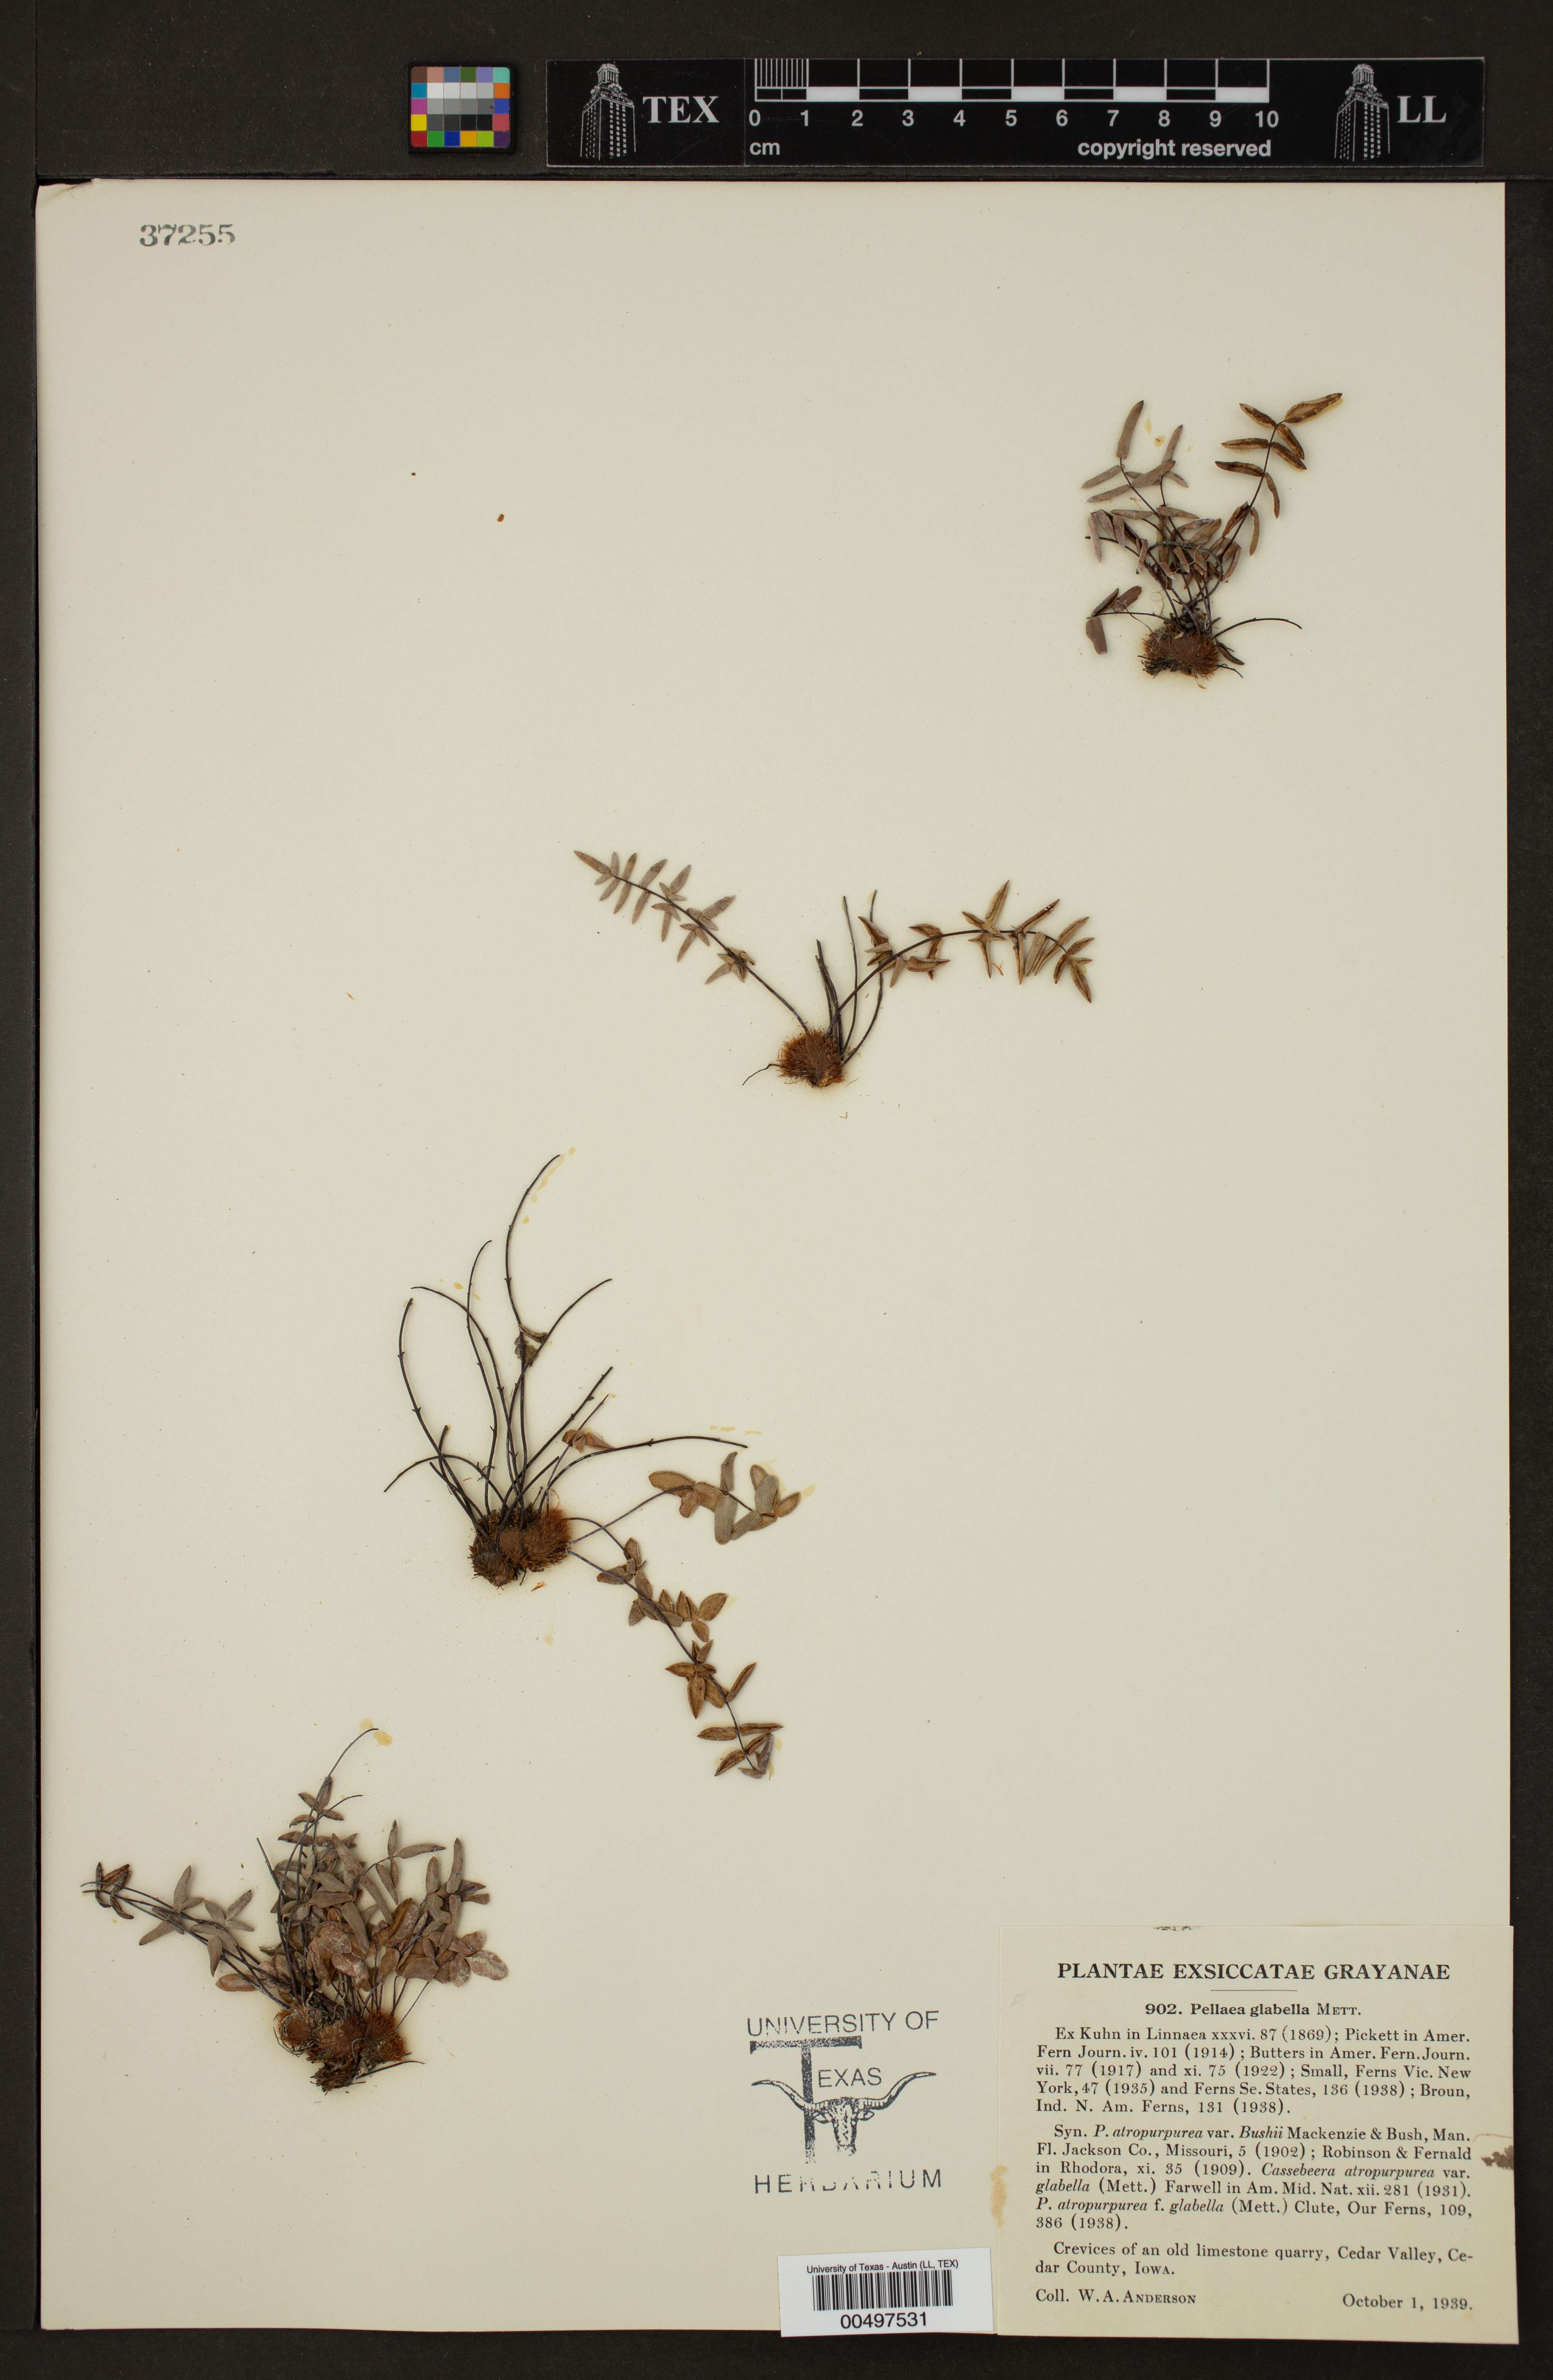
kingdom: Plantae
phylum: Tracheophyta
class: Polypodiopsida
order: Polypodiales
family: Pteridaceae
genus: Pellaea
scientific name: Pellaea glabella
